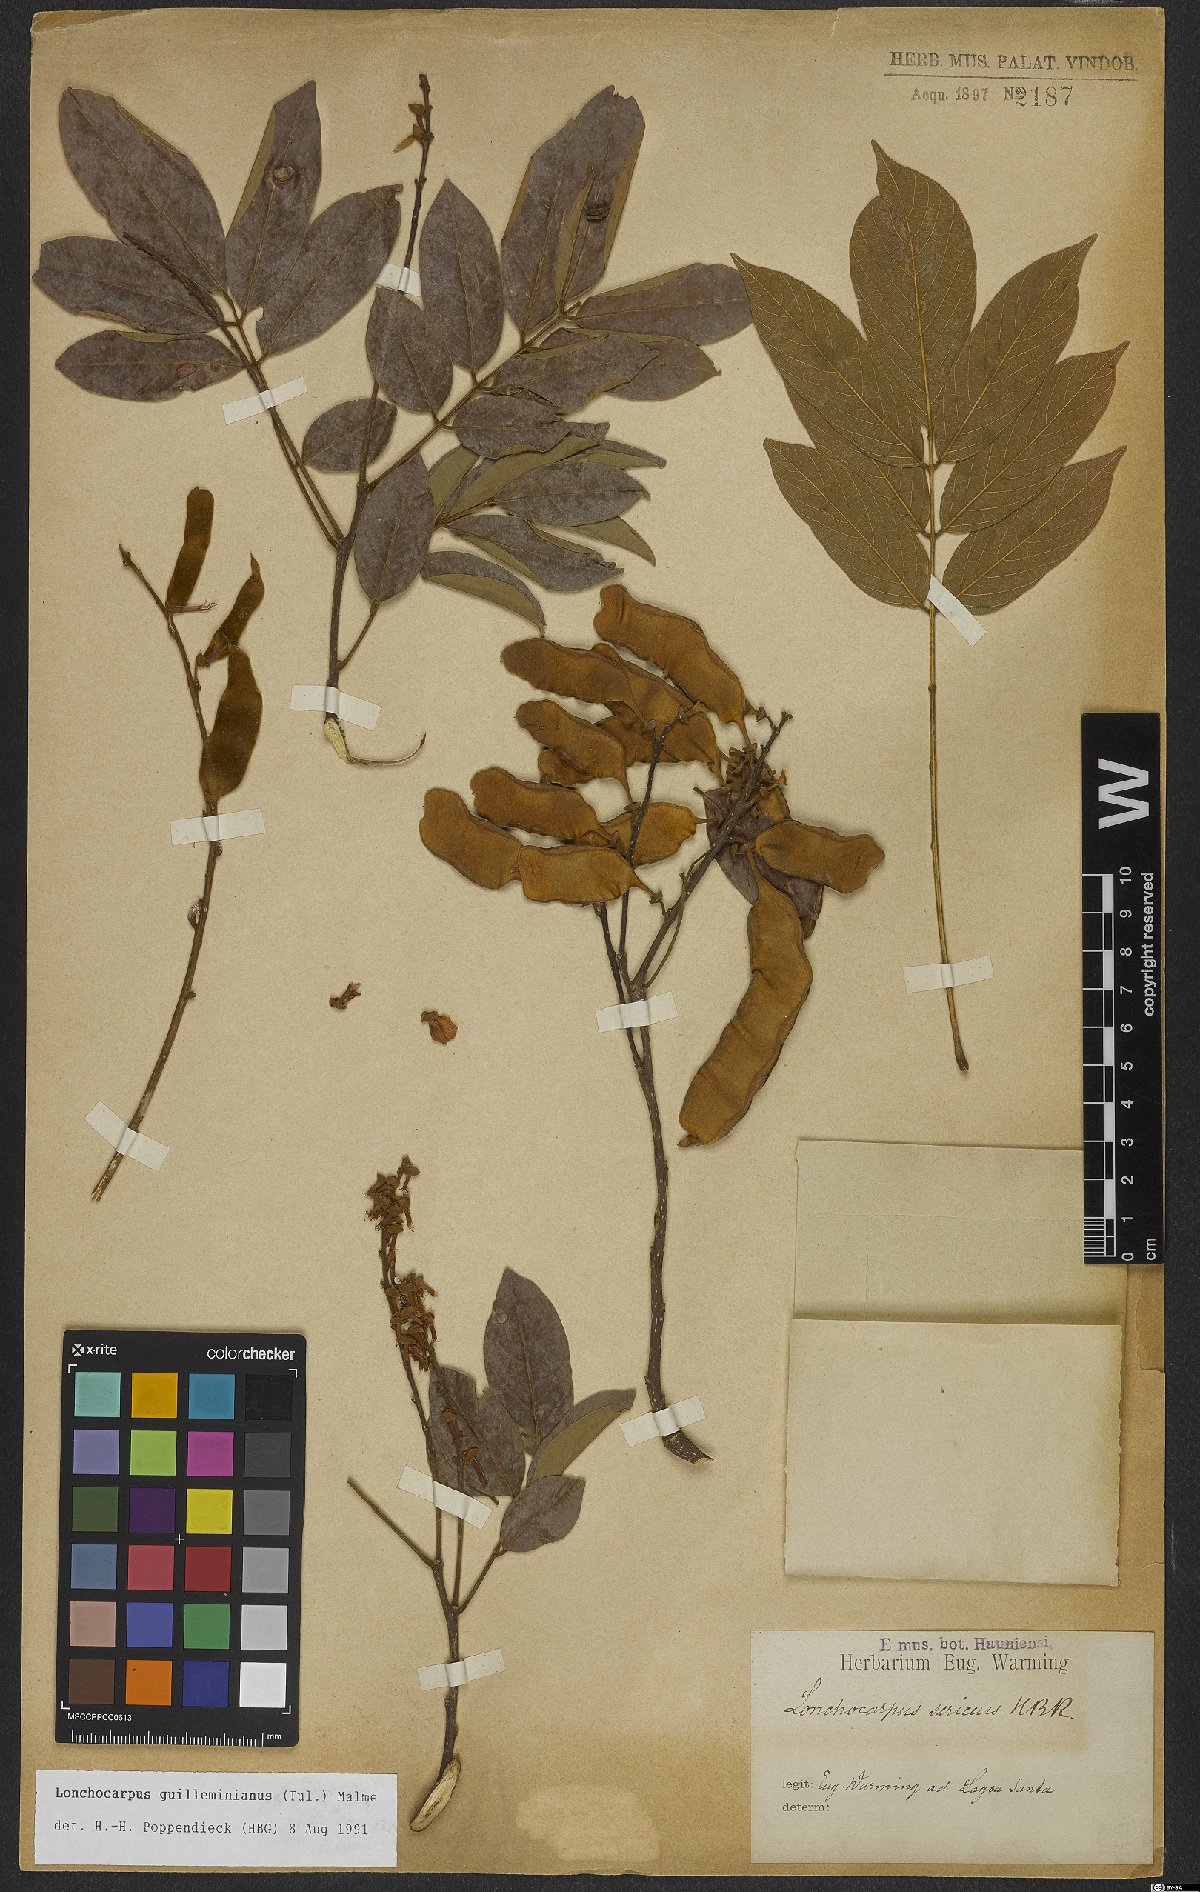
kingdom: Plantae
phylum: Tracheophyta
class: Magnoliopsida
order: Fabales
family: Fabaceae
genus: Lonchocarpus
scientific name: Lonchocarpus cultratus
